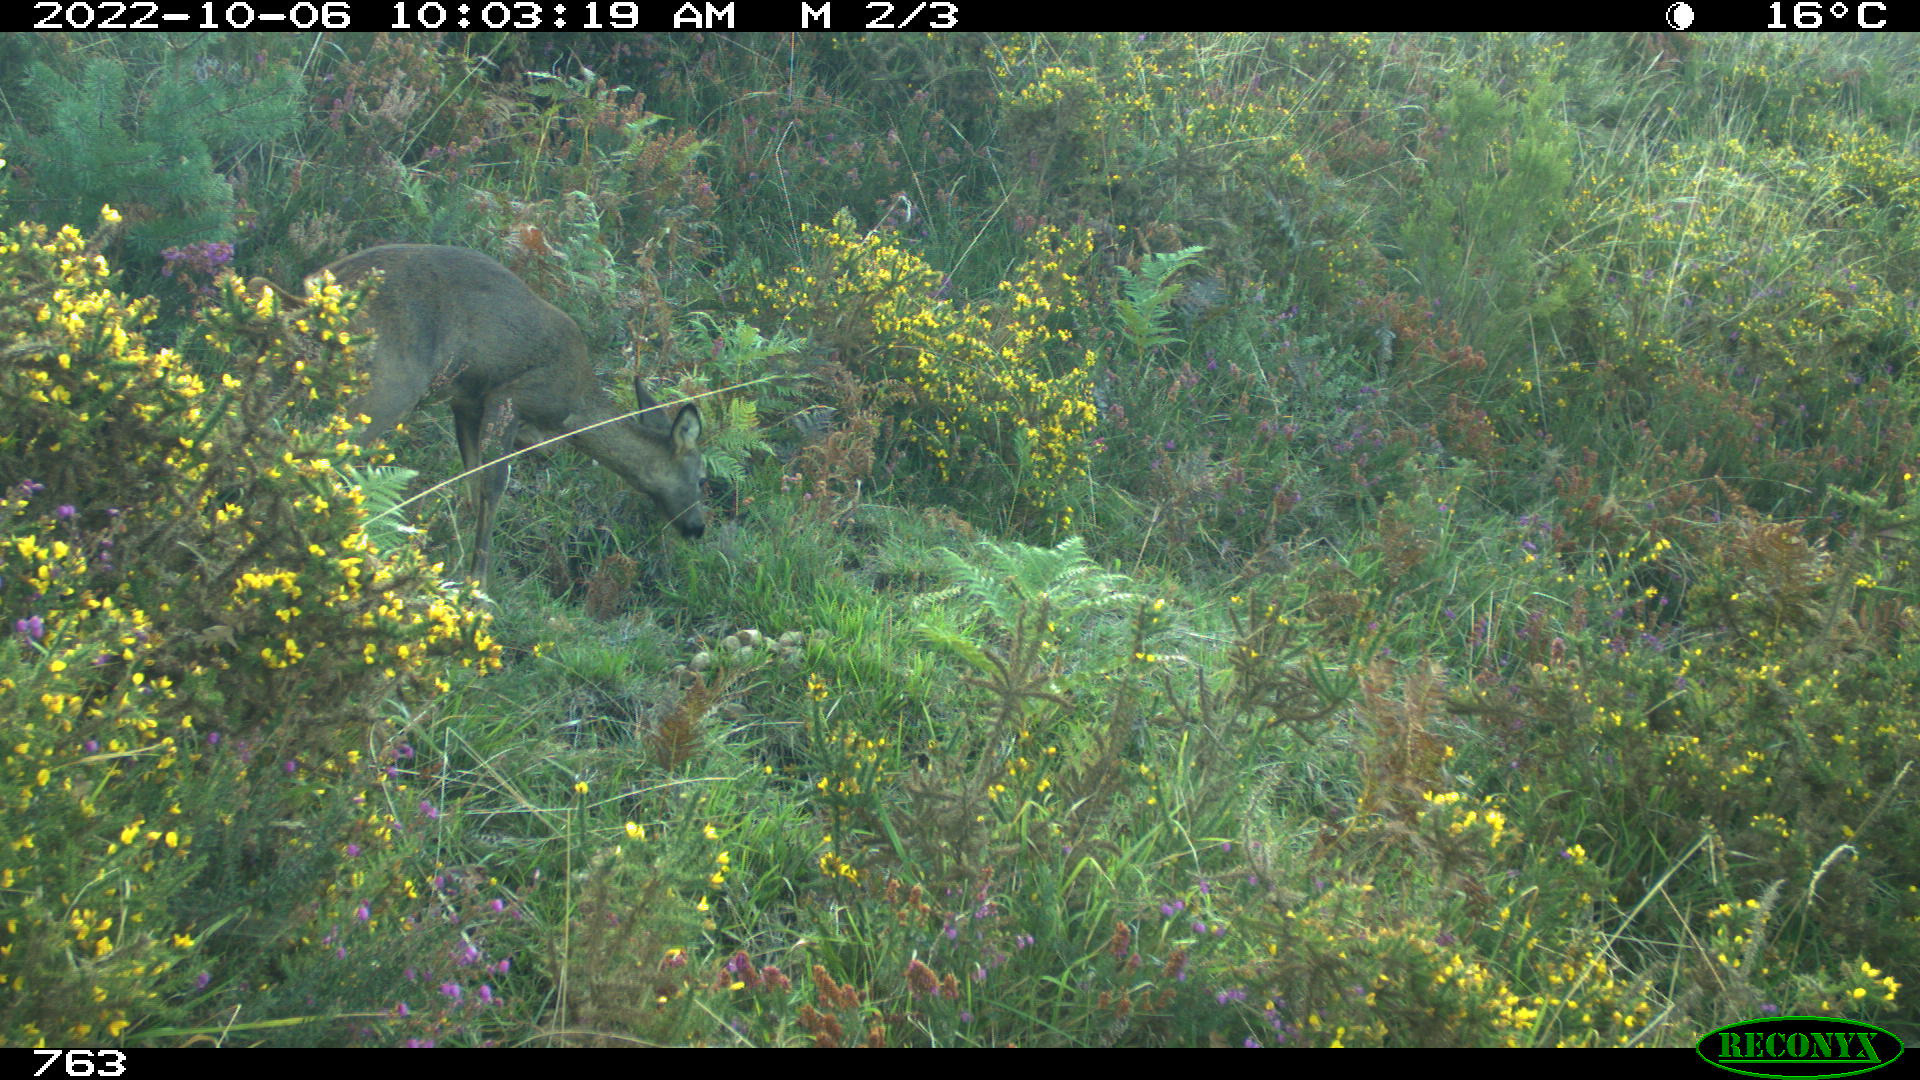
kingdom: Animalia
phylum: Chordata
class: Mammalia
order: Artiodactyla
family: Cervidae
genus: Capreolus
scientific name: Capreolus capreolus
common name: Western roe deer
